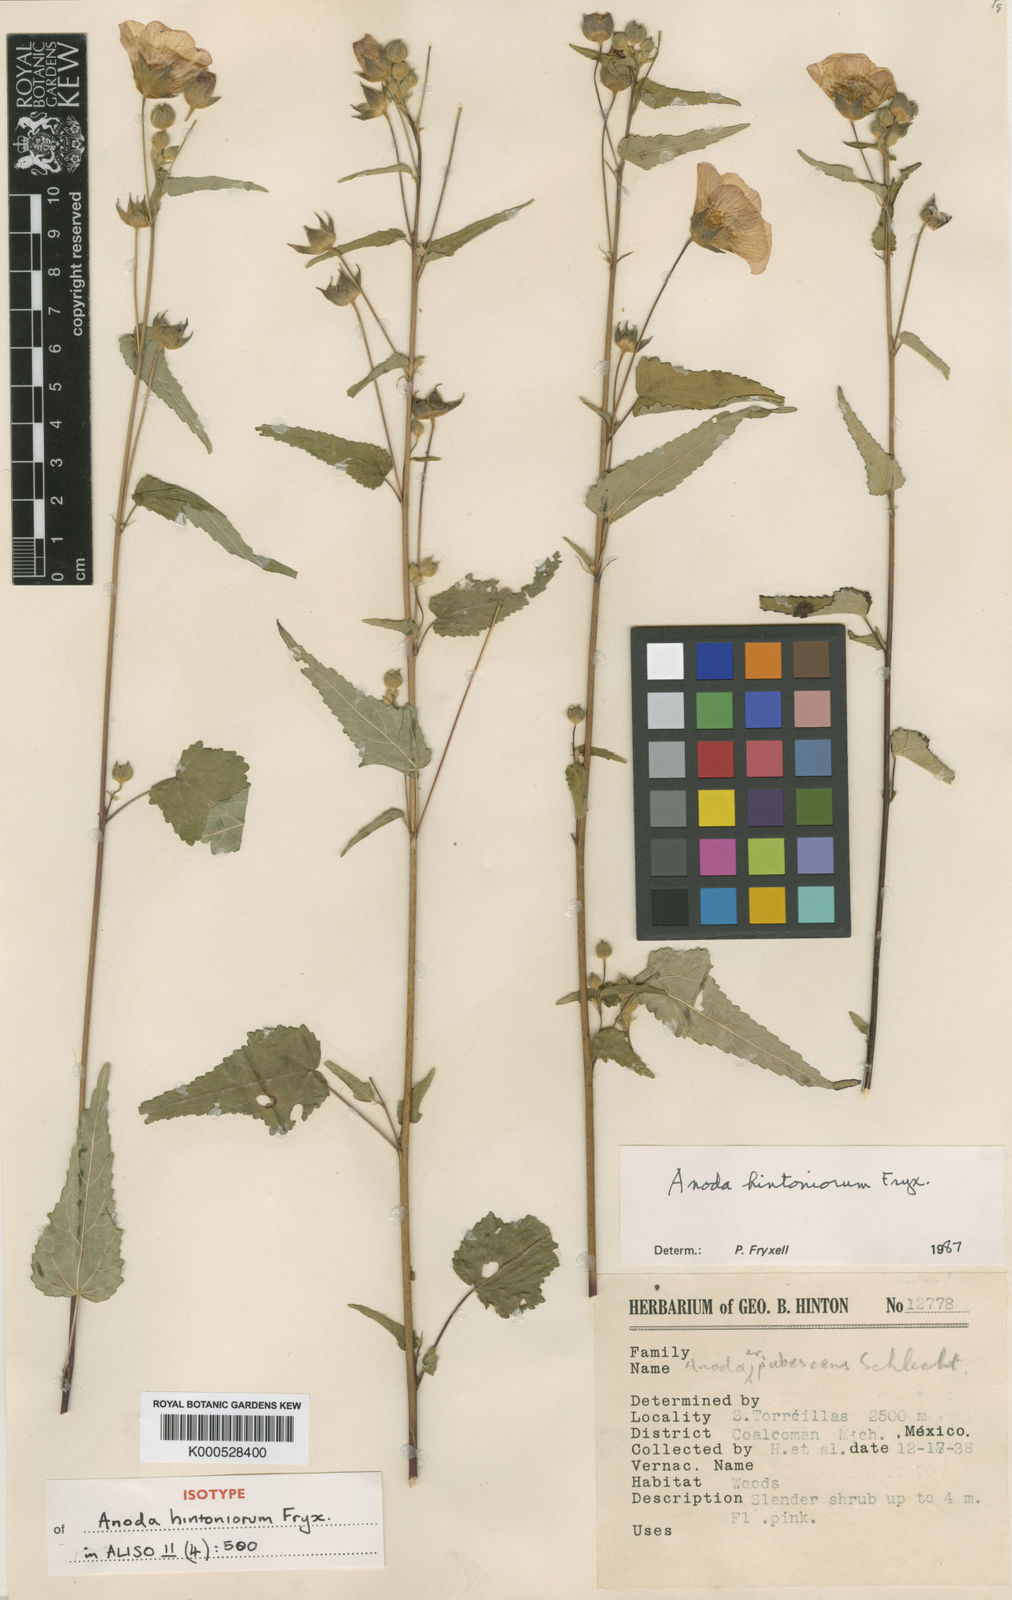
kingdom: Plantae
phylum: Tracheophyta
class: Magnoliopsida
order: Malvales
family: Malvaceae
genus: Anoda
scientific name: Anoda hintoniorum
